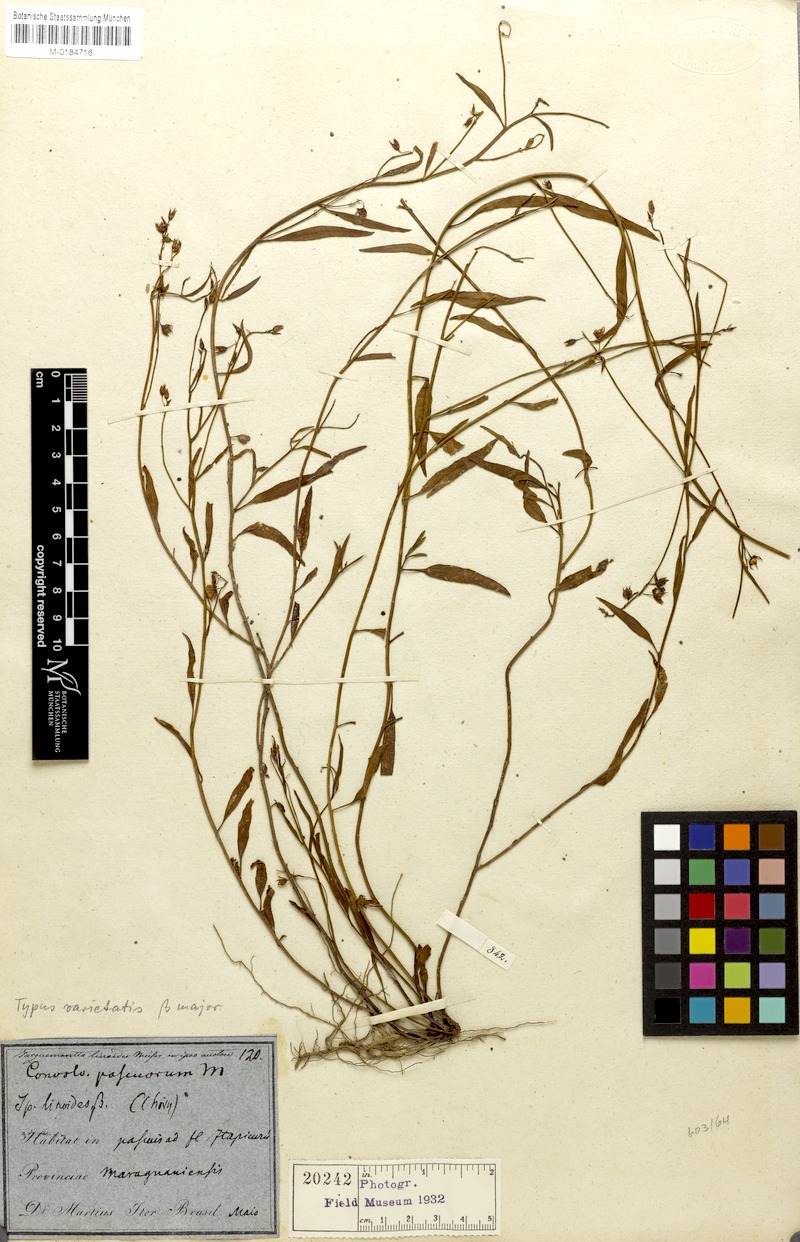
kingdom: Plantae
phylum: Tracheophyta
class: Magnoliopsida
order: Solanales
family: Convolvulaceae
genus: Jacquemontia
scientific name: Jacquemontia linoides
